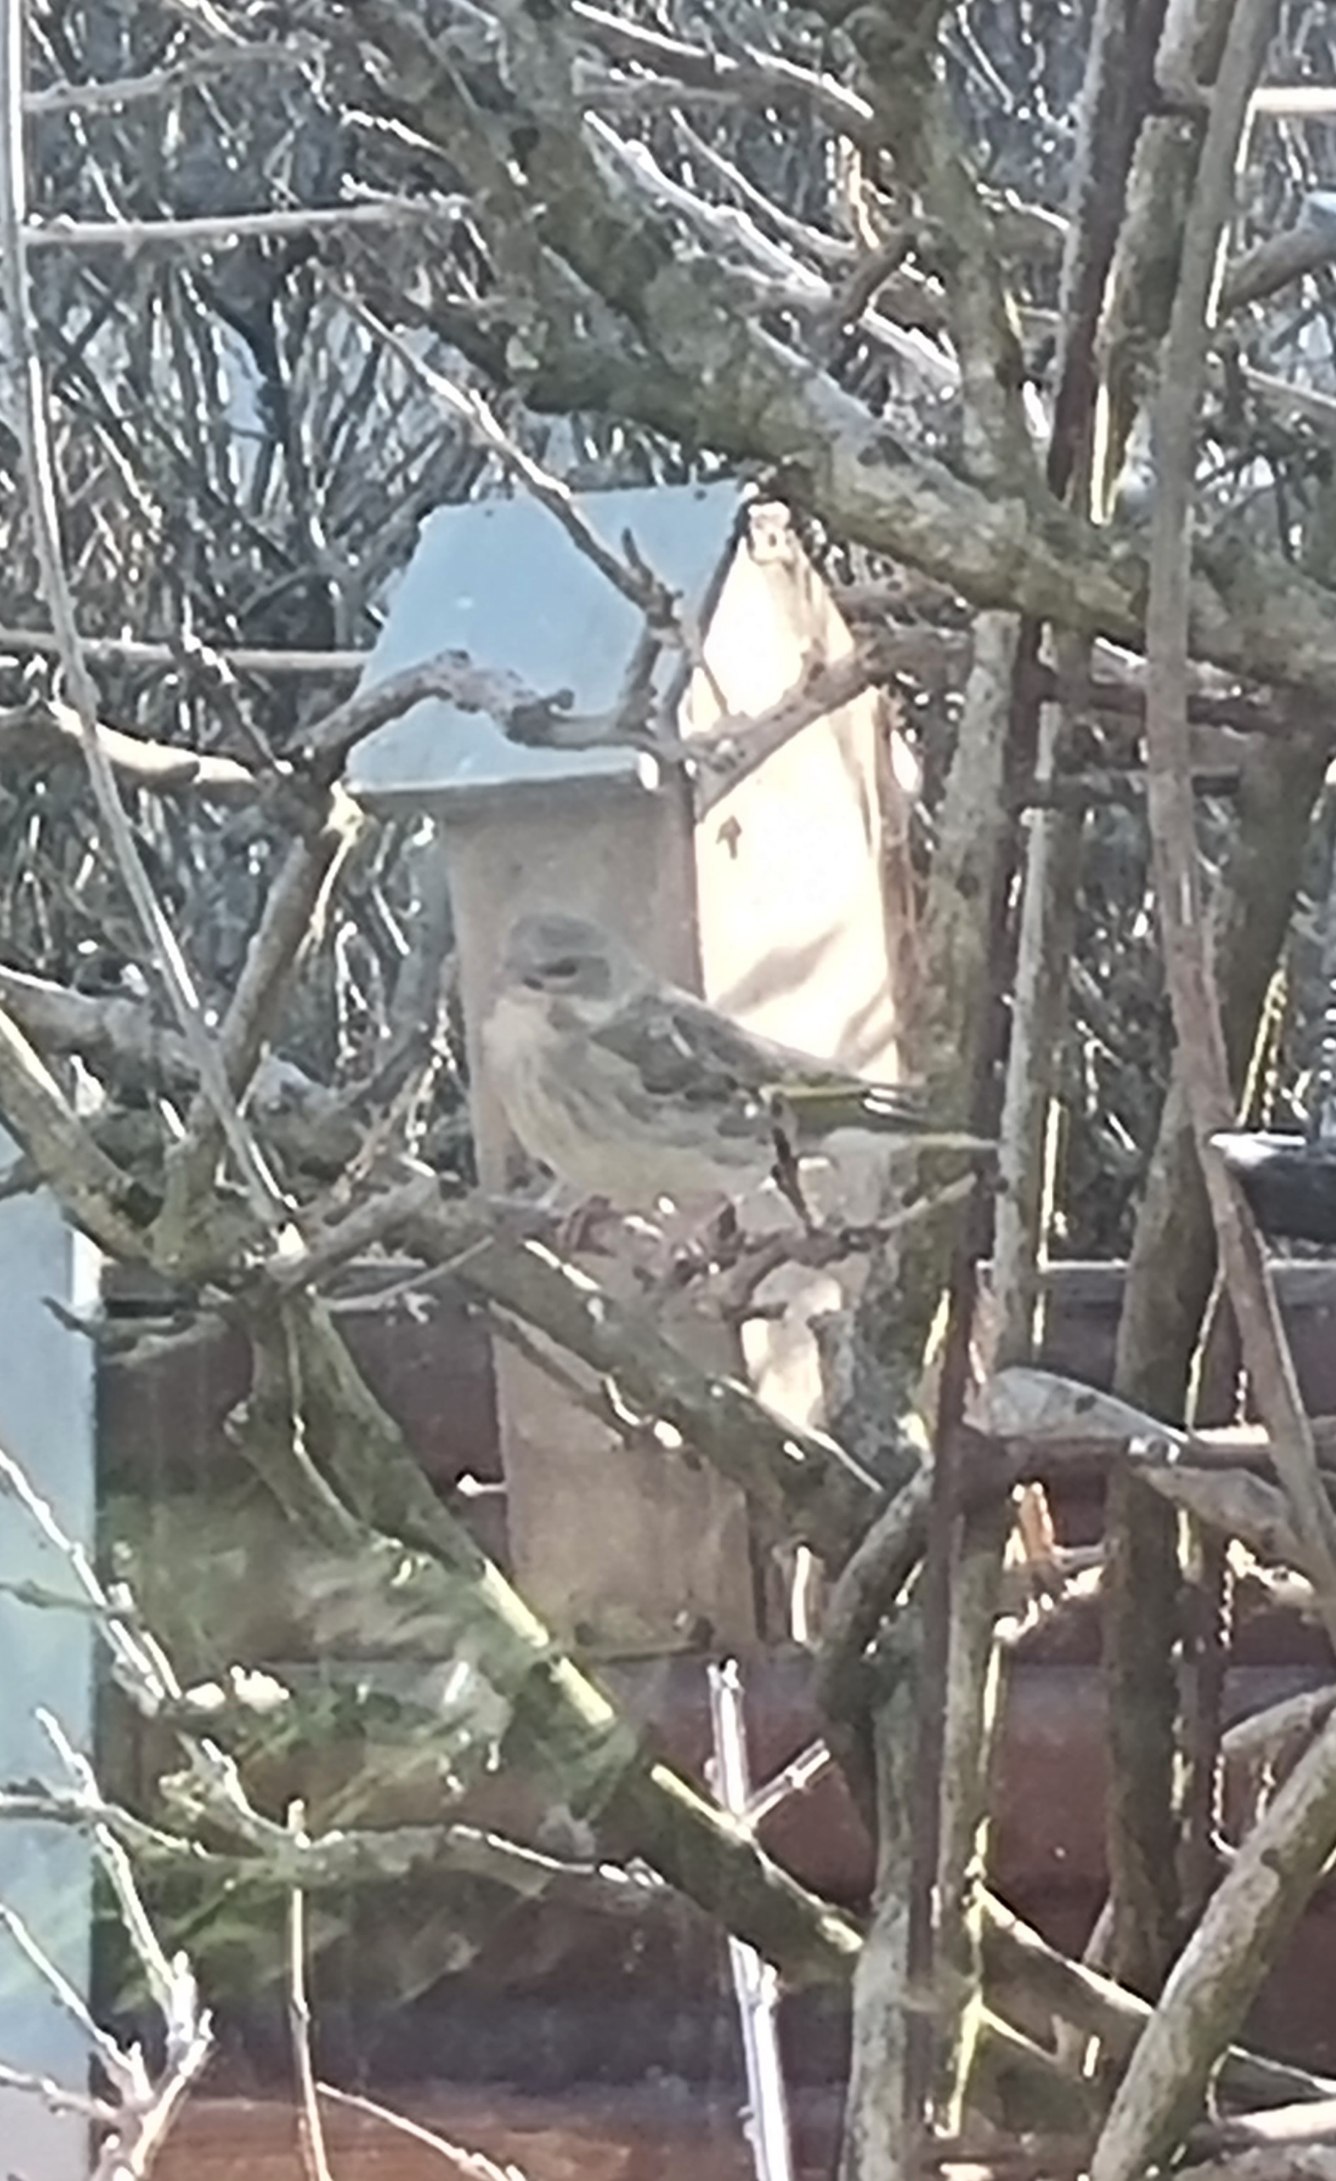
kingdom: Animalia
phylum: Chordata
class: Aves
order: Passeriformes
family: Fringillidae
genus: Spinus
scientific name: Spinus spinus
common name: Grønsisken
